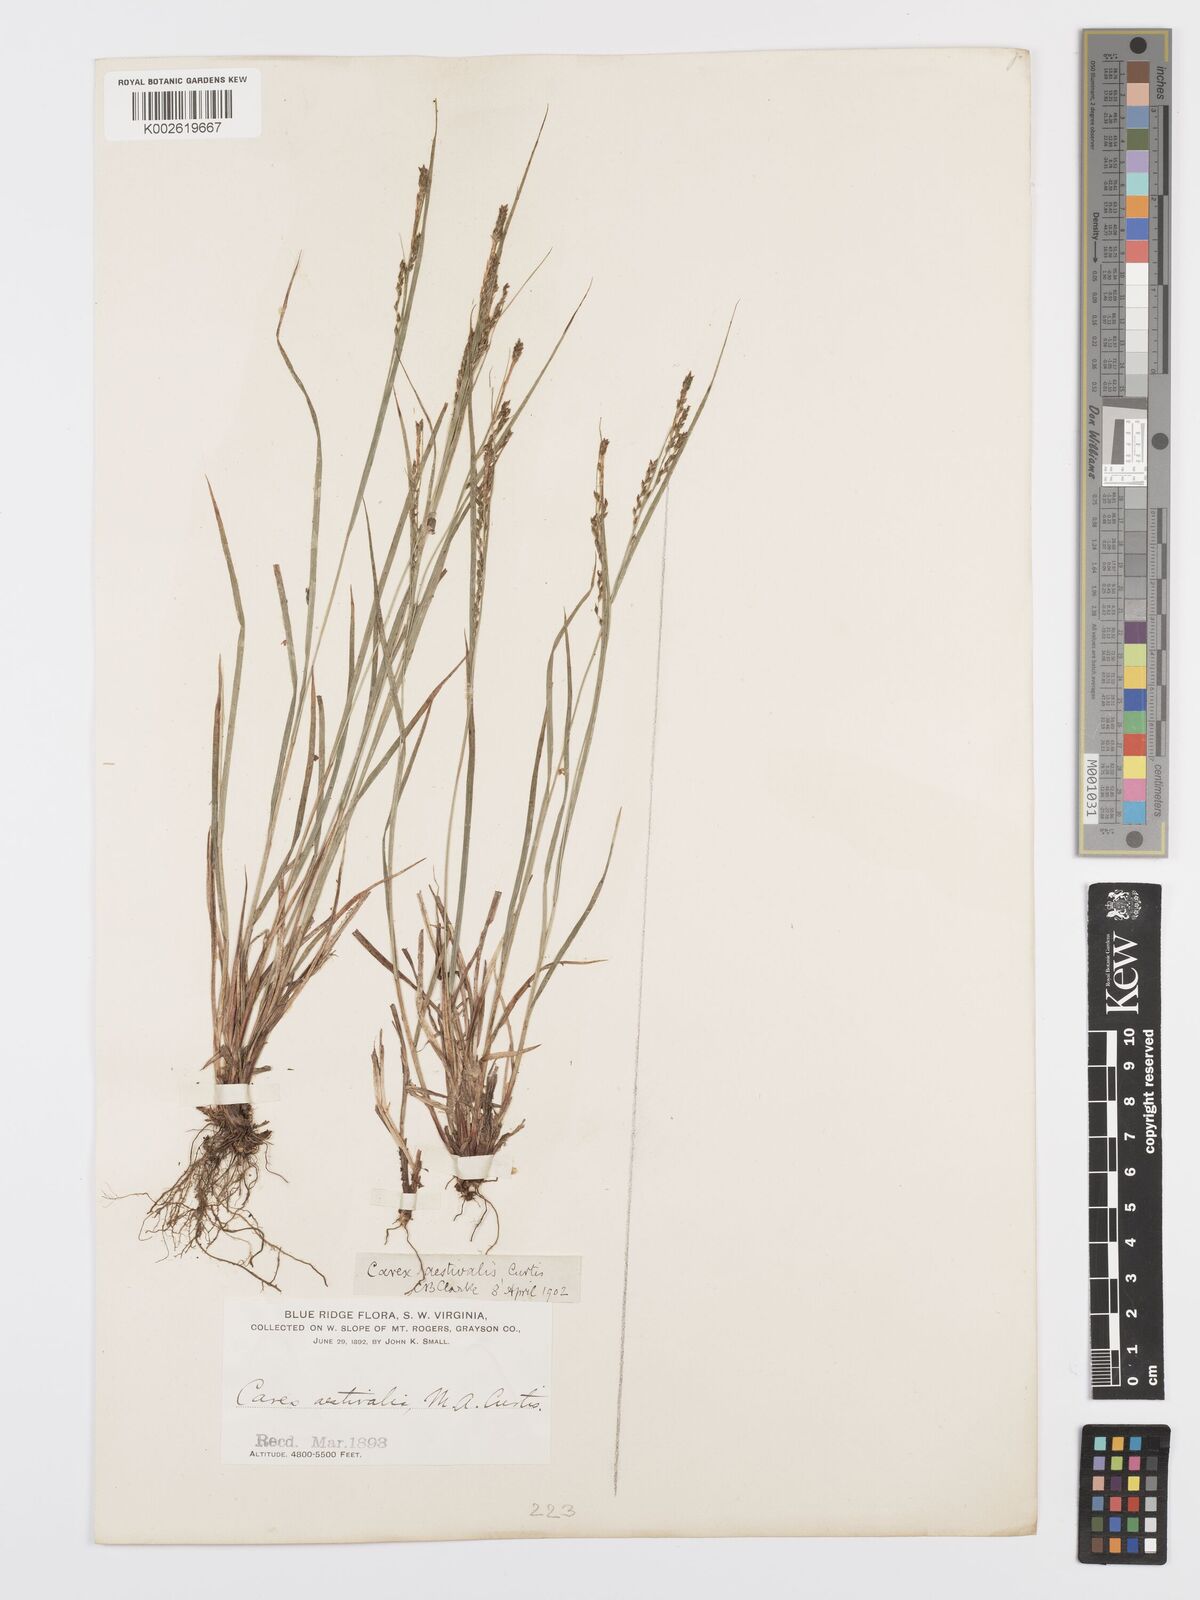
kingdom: Plantae
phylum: Tracheophyta
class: Liliopsida
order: Poales
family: Cyperaceae
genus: Carex
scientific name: Carex aestivalis
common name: Summer sedge
